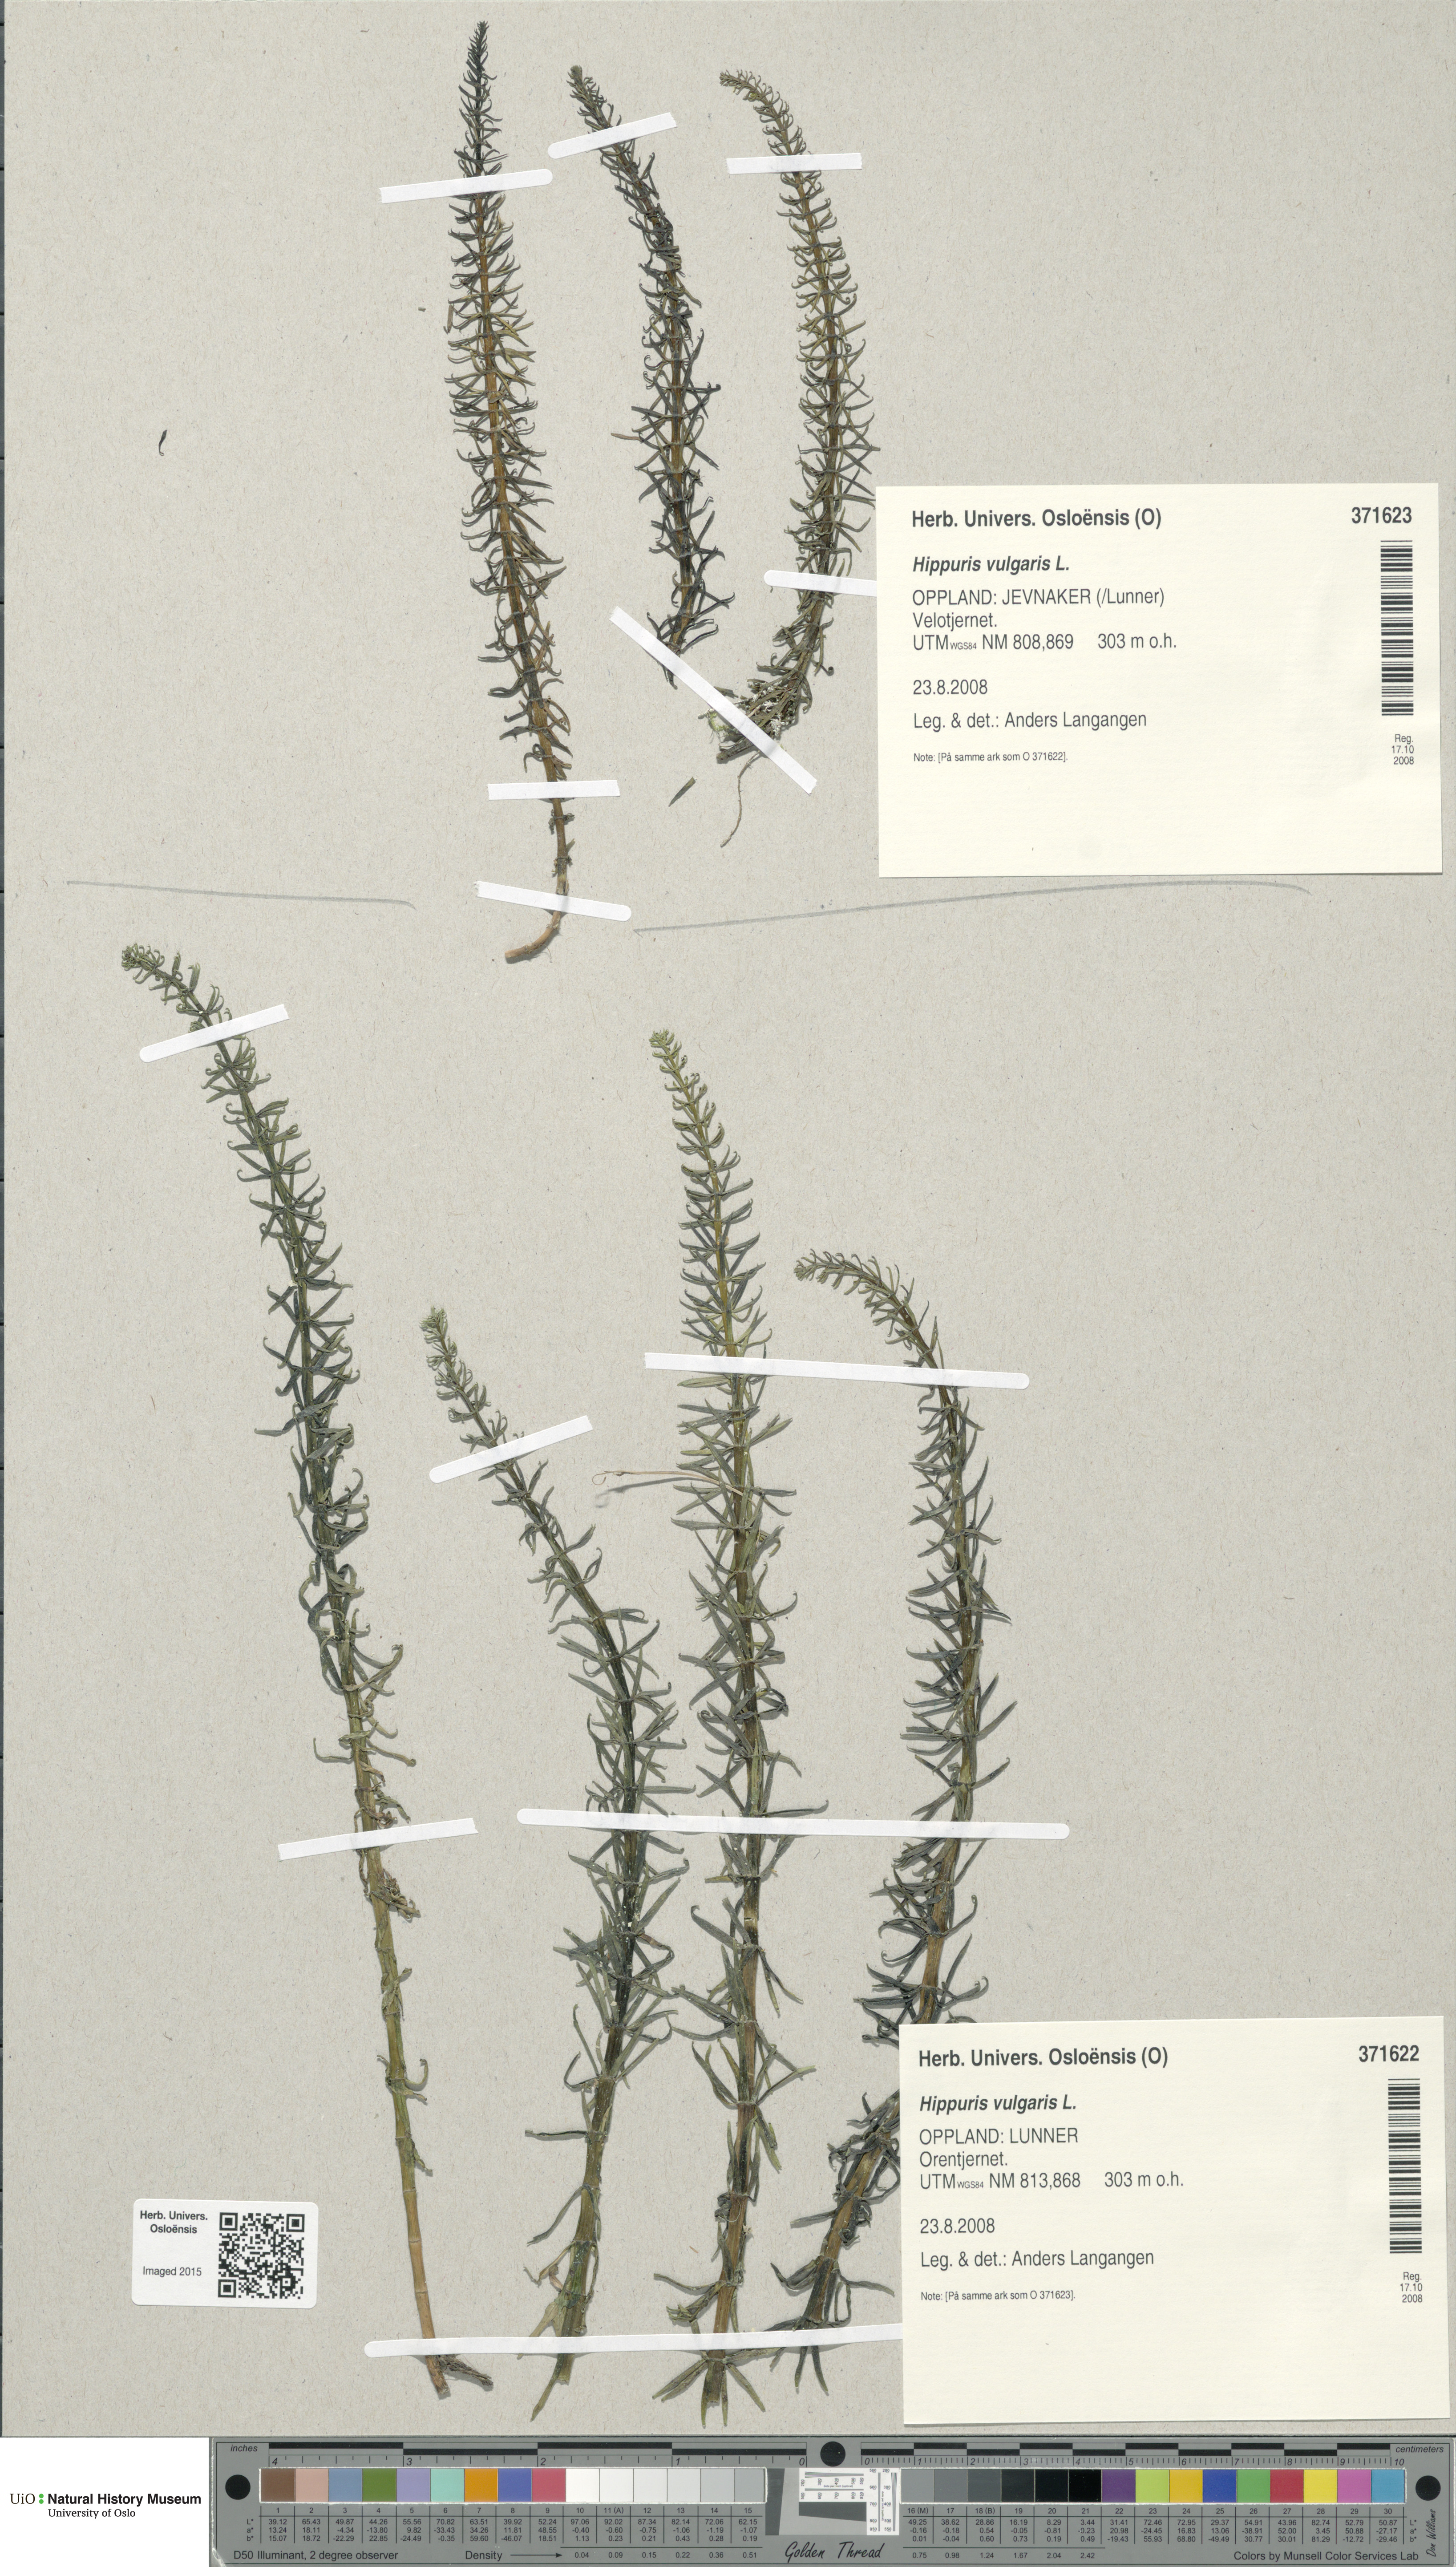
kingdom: Plantae
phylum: Tracheophyta
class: Magnoliopsida
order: Lamiales
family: Plantaginaceae
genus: Hippuris
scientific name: Hippuris vulgaris
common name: Mare's-tail
